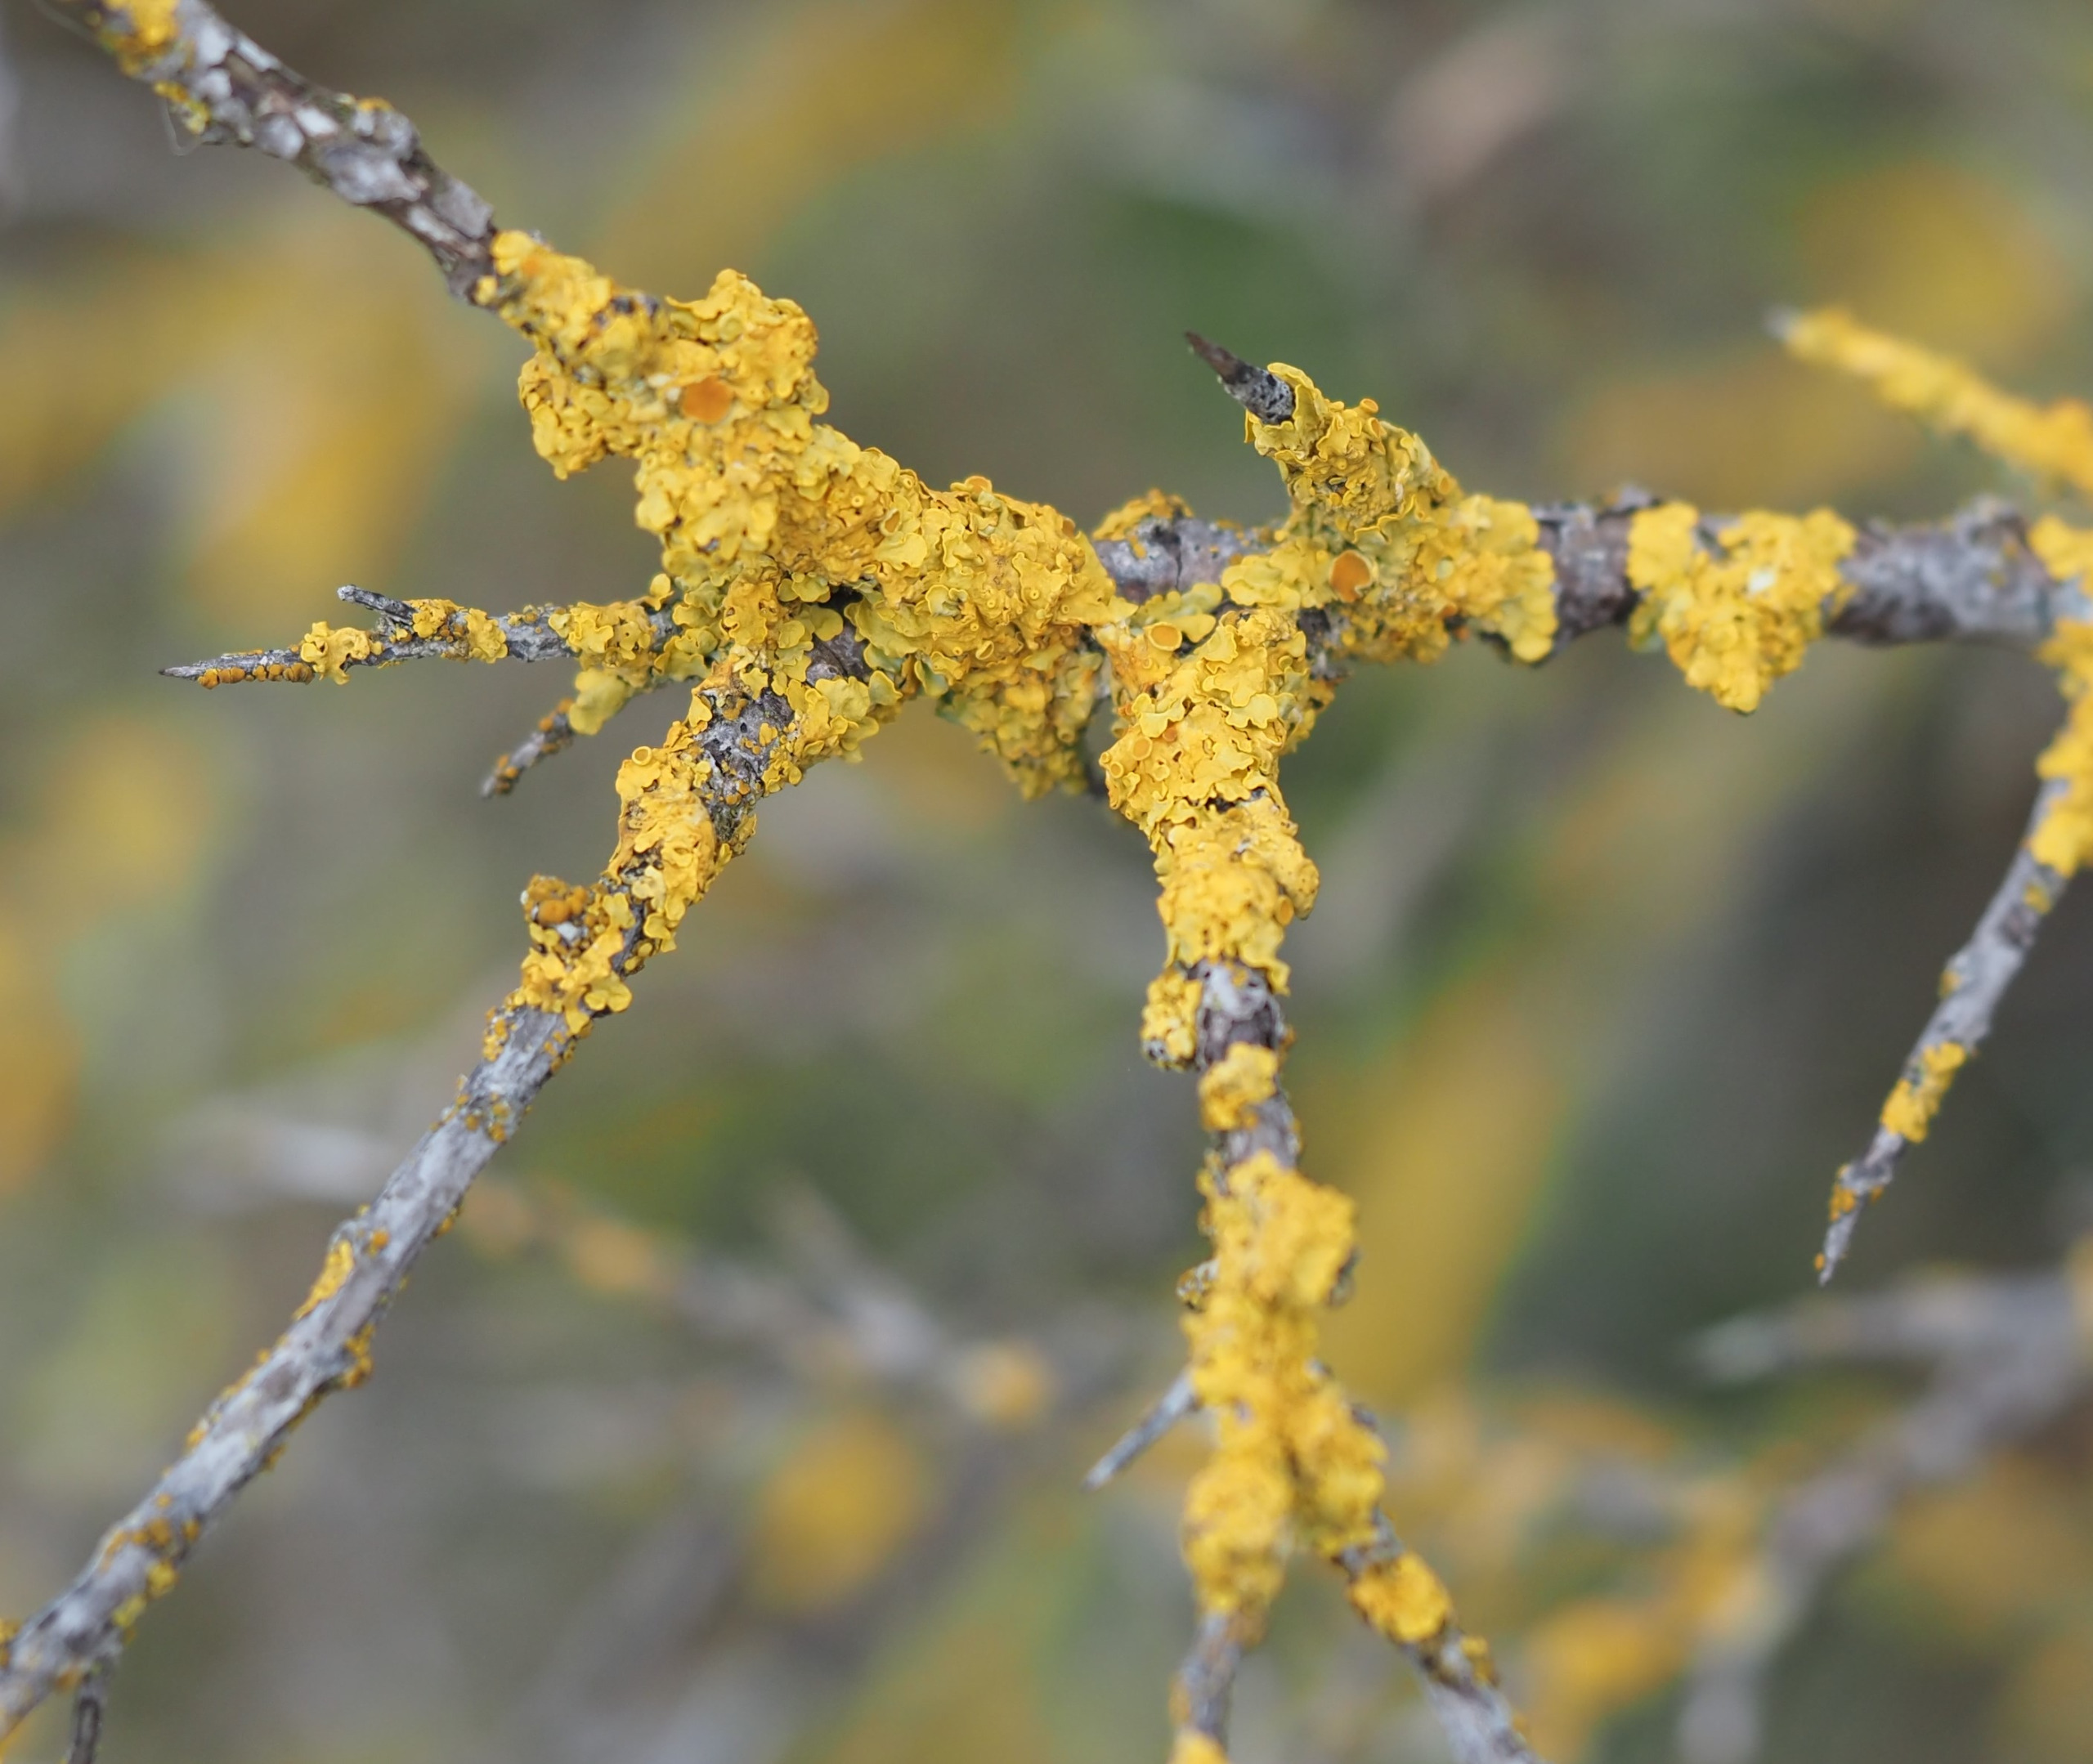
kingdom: Fungi
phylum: Ascomycota
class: Lecanoromycetes
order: Teloschistales
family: Teloschistaceae
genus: Xanthoria
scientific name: Xanthoria parietina
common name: Almindelig væggelav
